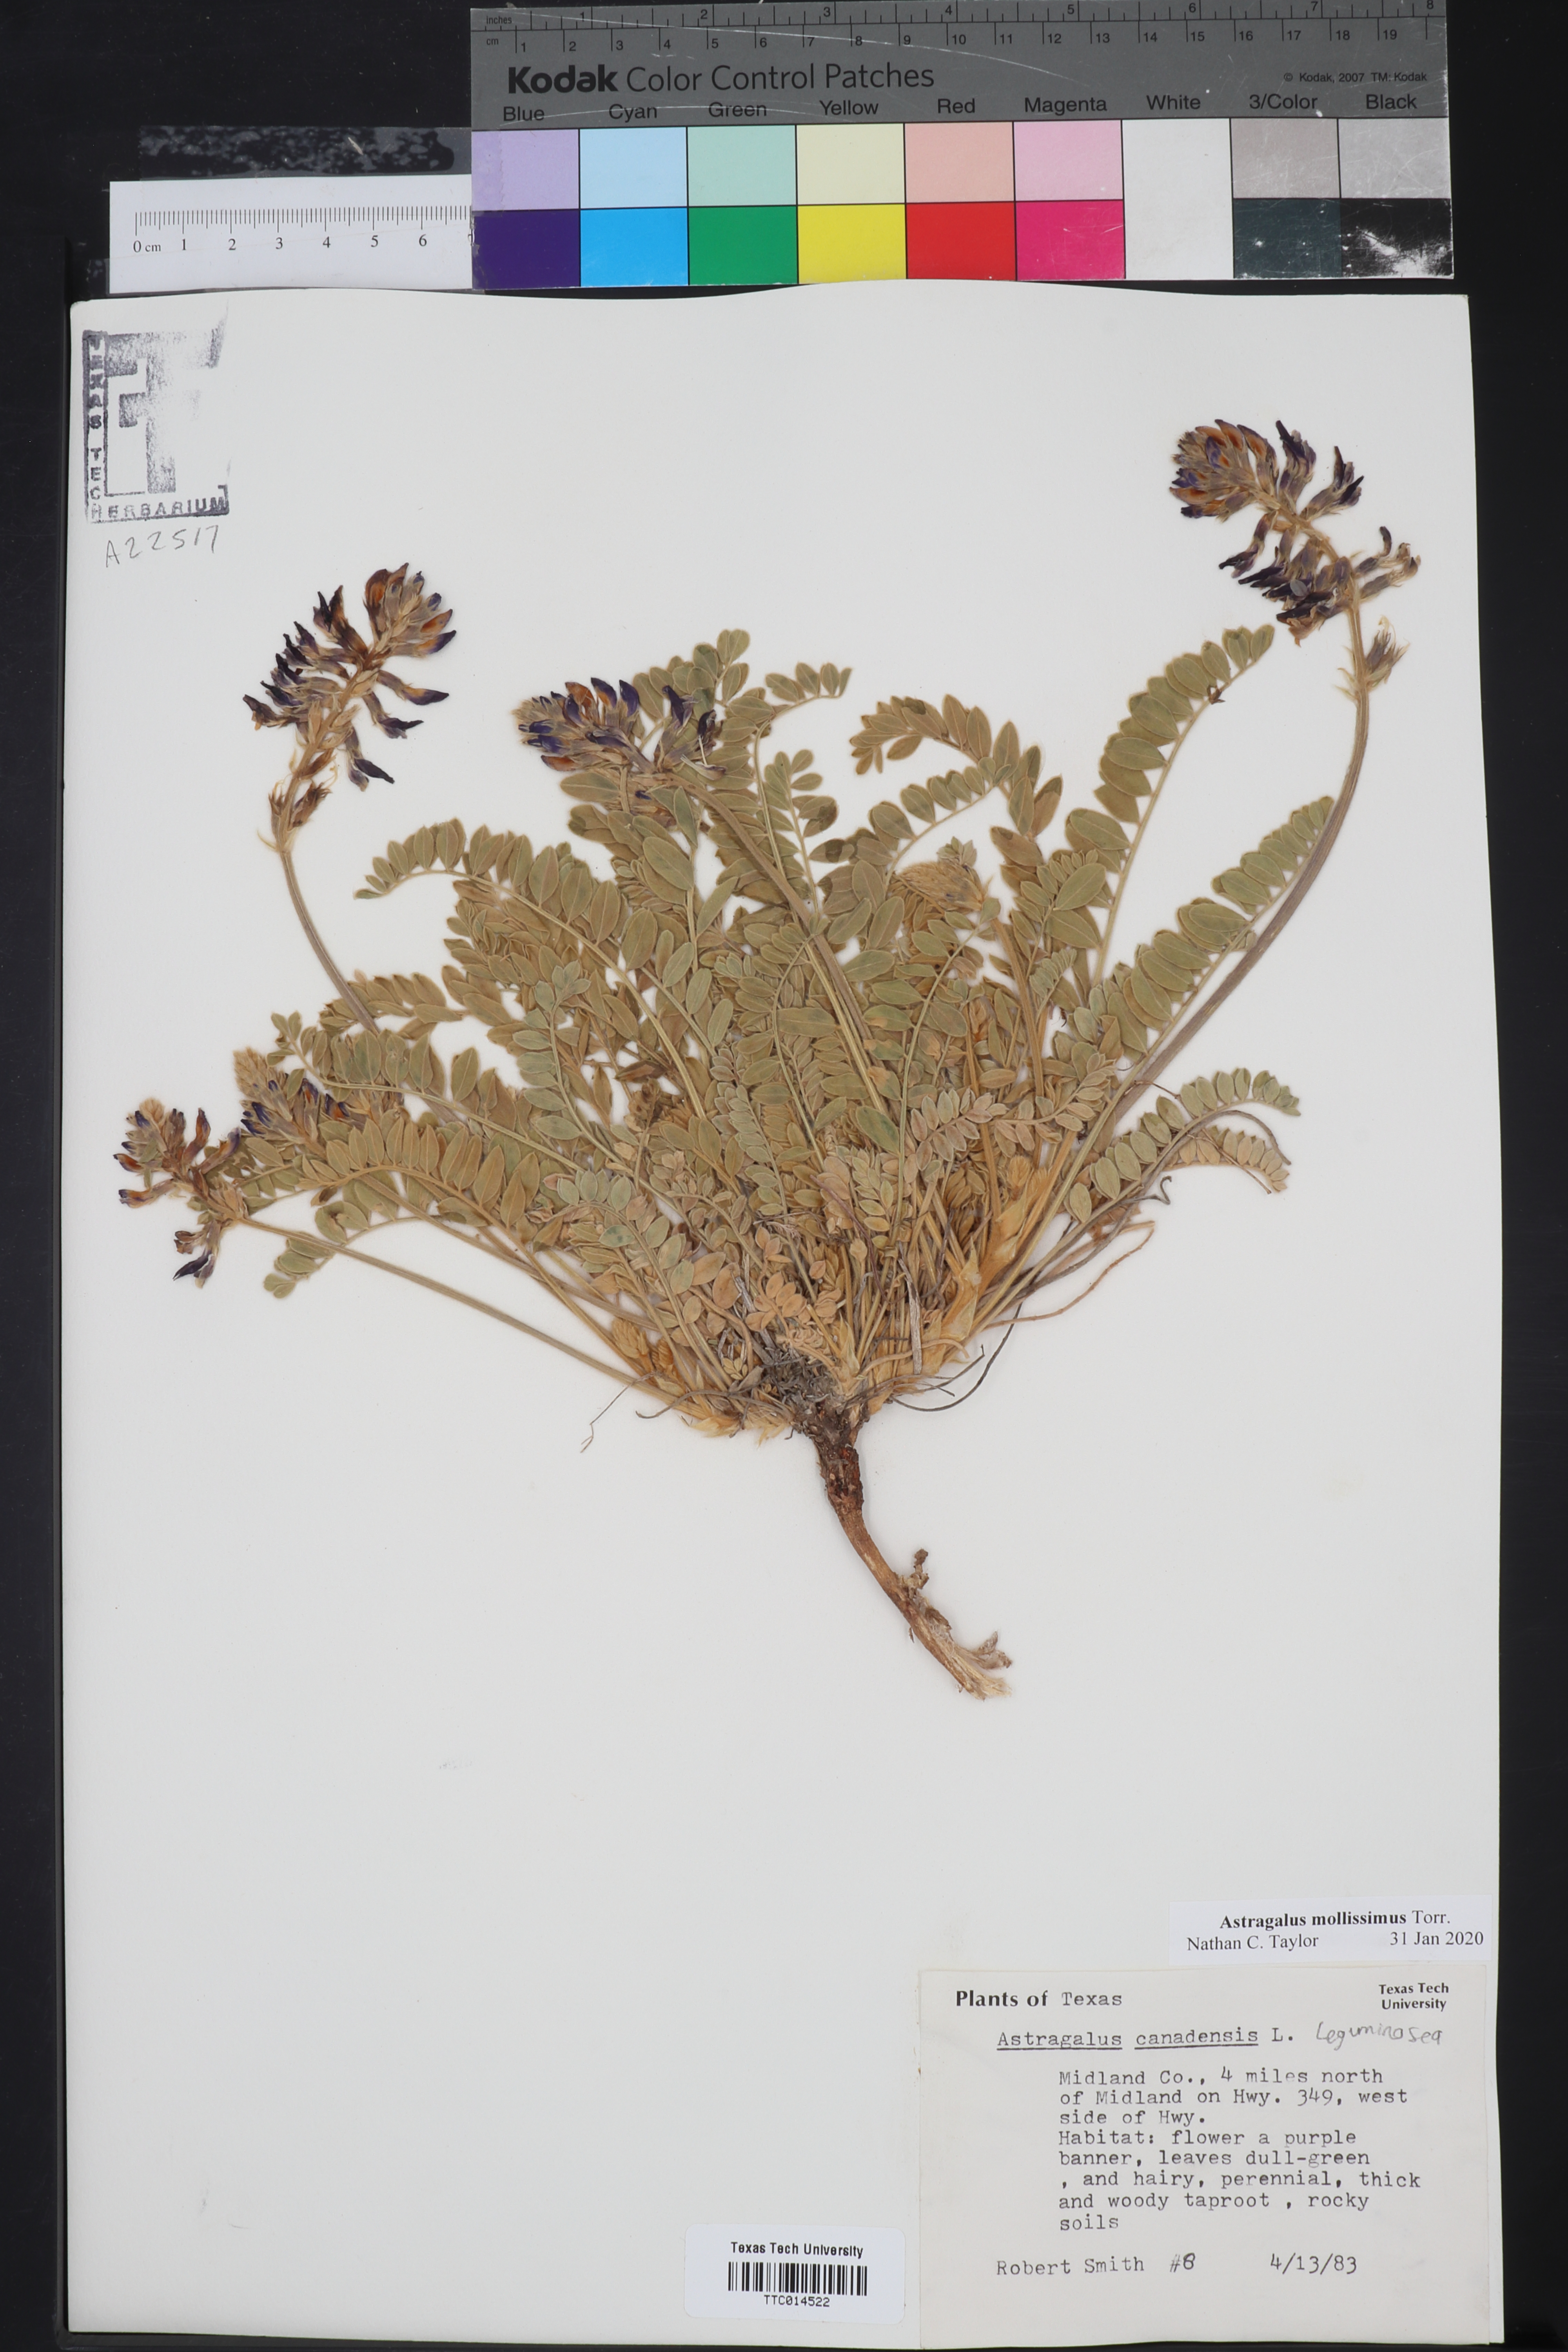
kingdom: Plantae
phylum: Tracheophyta
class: Magnoliopsida
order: Fabales
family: Fabaceae
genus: Astragalus
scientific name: Astragalus mollissimus
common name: Woolly locoweed
